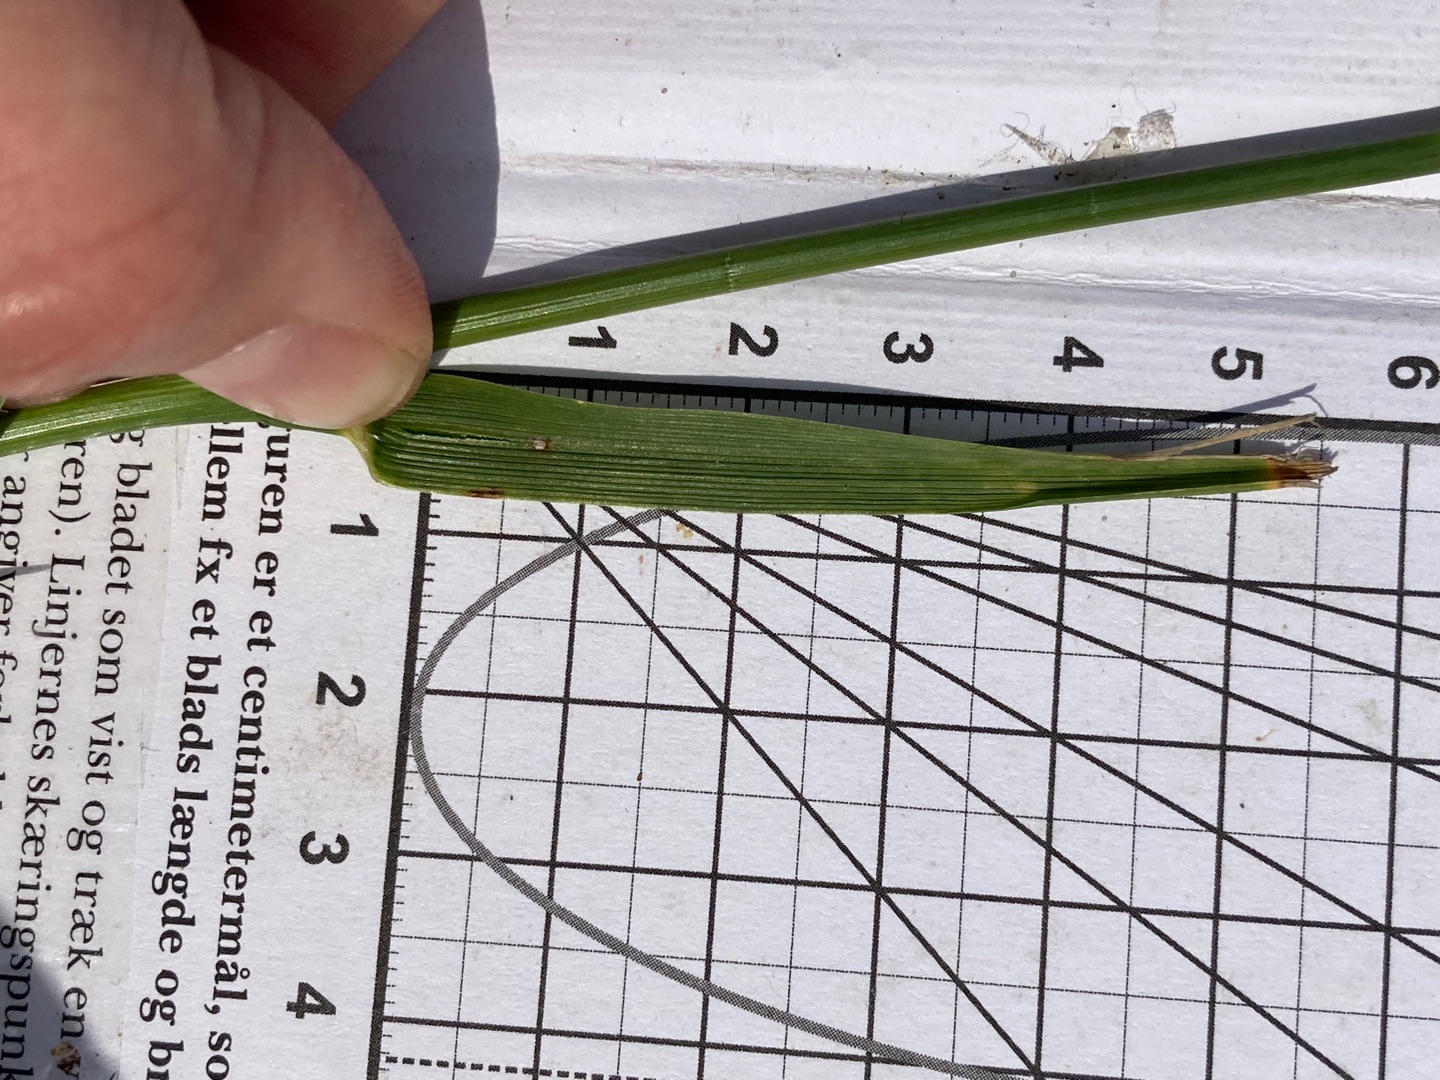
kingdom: Plantae
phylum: Tracheophyta
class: Magnoliopsida
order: Gentianales
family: Gentianaceae
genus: Centaurium
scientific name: Centaurium erythraea
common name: Mark-tusindgylden
